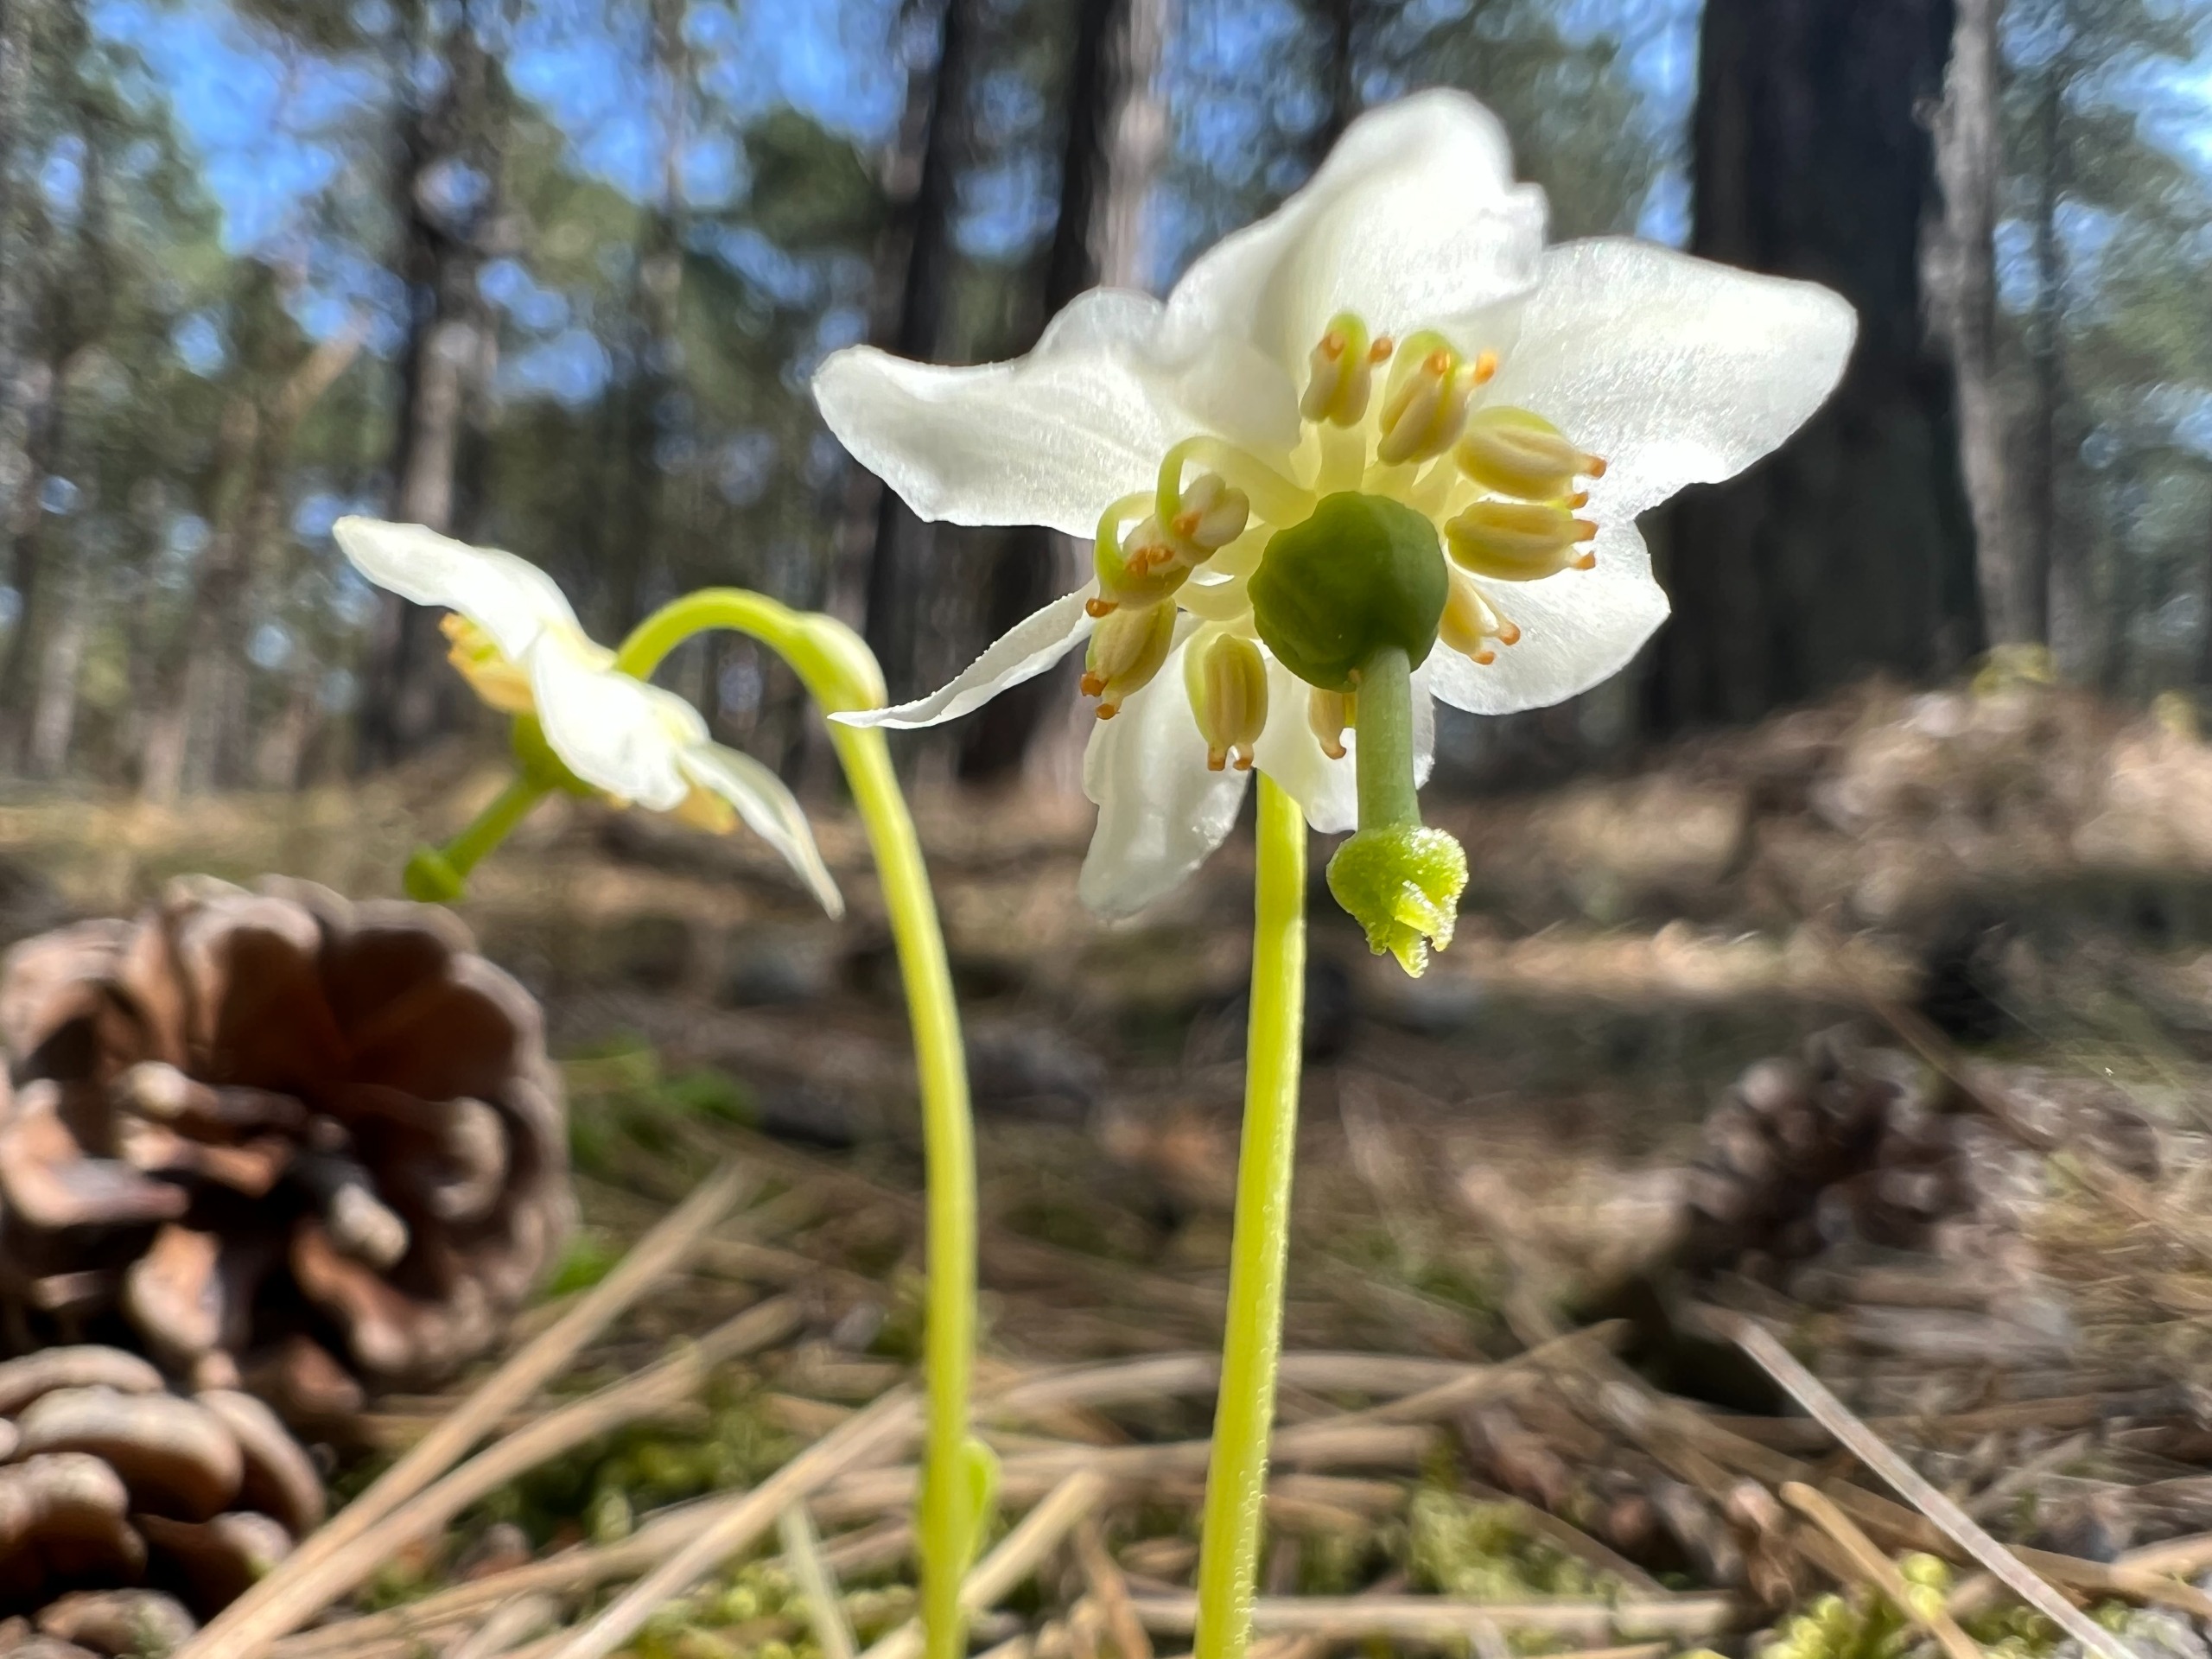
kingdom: Plantae
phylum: Tracheophyta
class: Magnoliopsida
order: Ericales
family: Ericaceae
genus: Moneses
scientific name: Moneses uniflora
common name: Enblomstret vintergrøn
